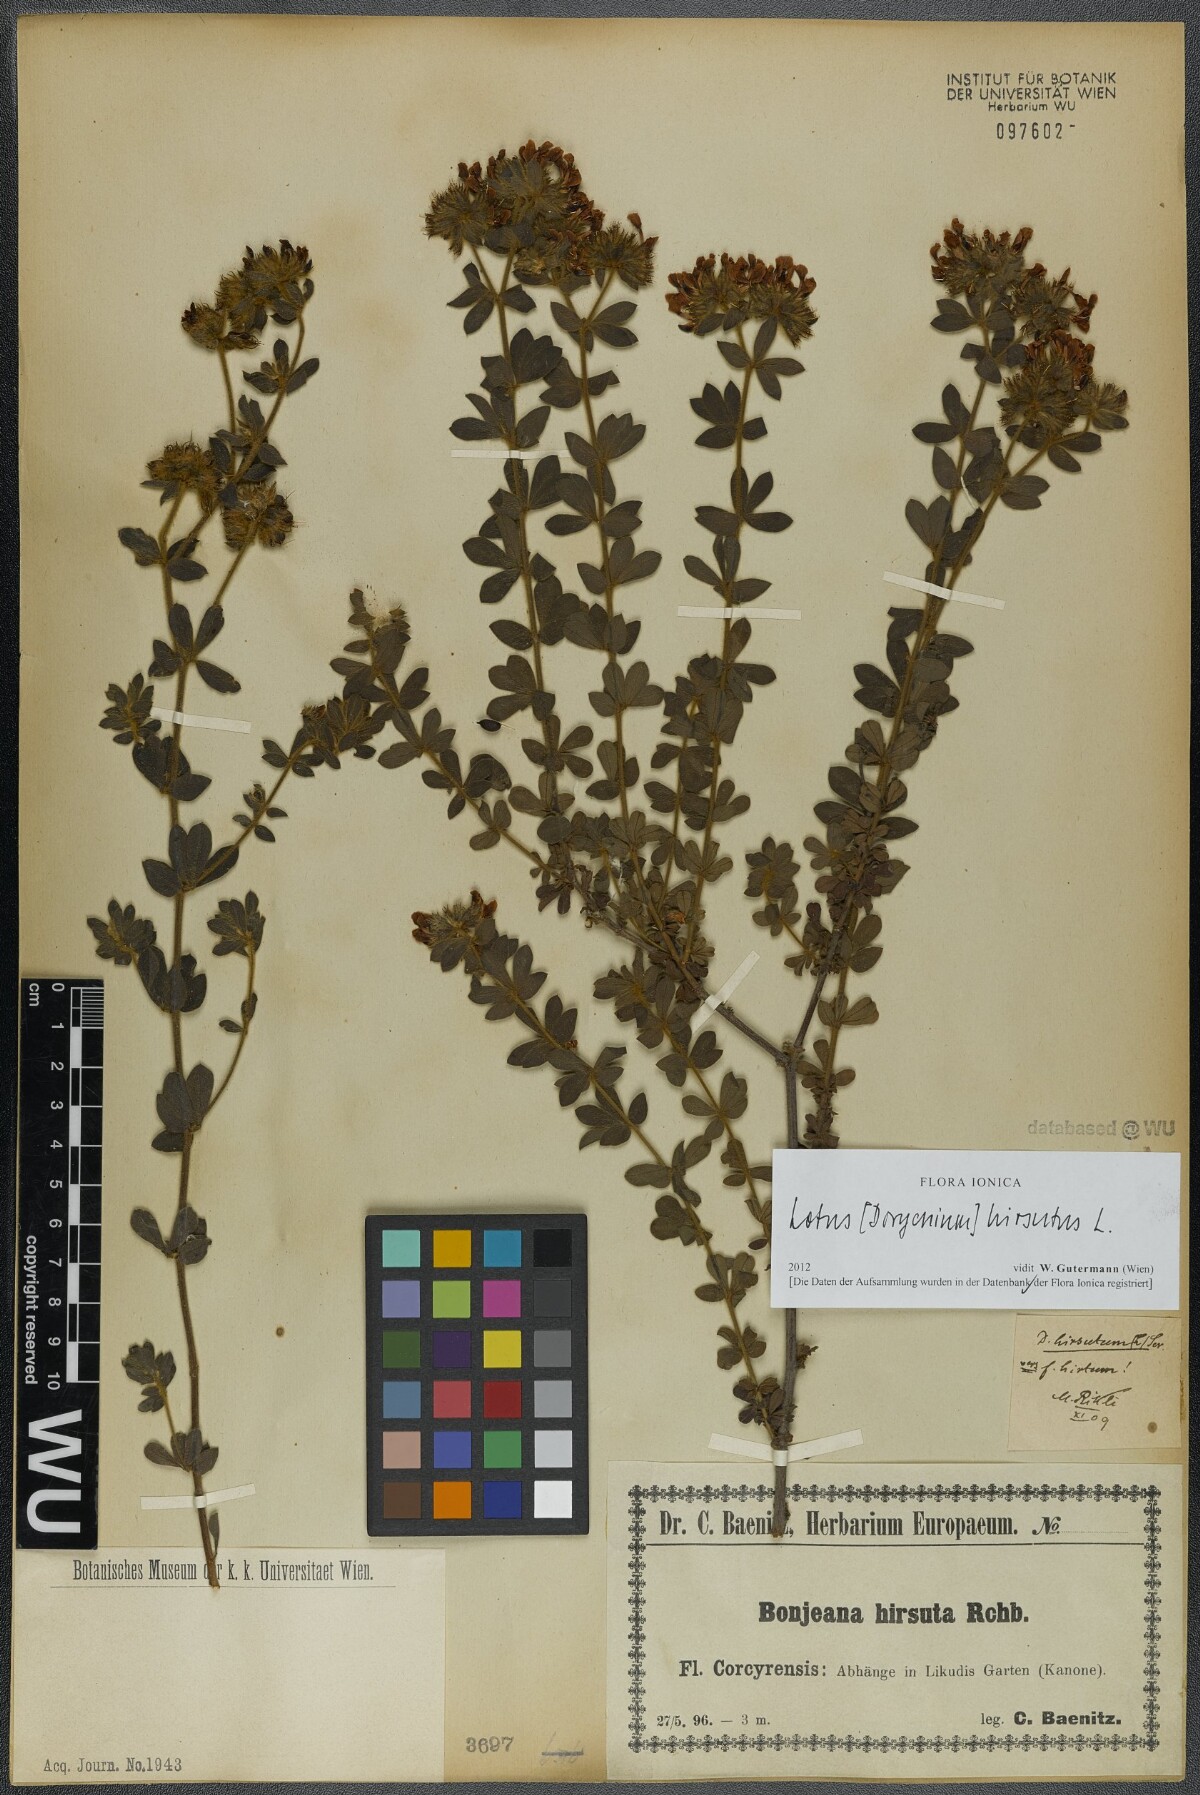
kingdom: Plantae
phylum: Tracheophyta
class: Magnoliopsida
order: Fabales
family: Fabaceae
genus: Lotus
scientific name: Lotus hirsutus
